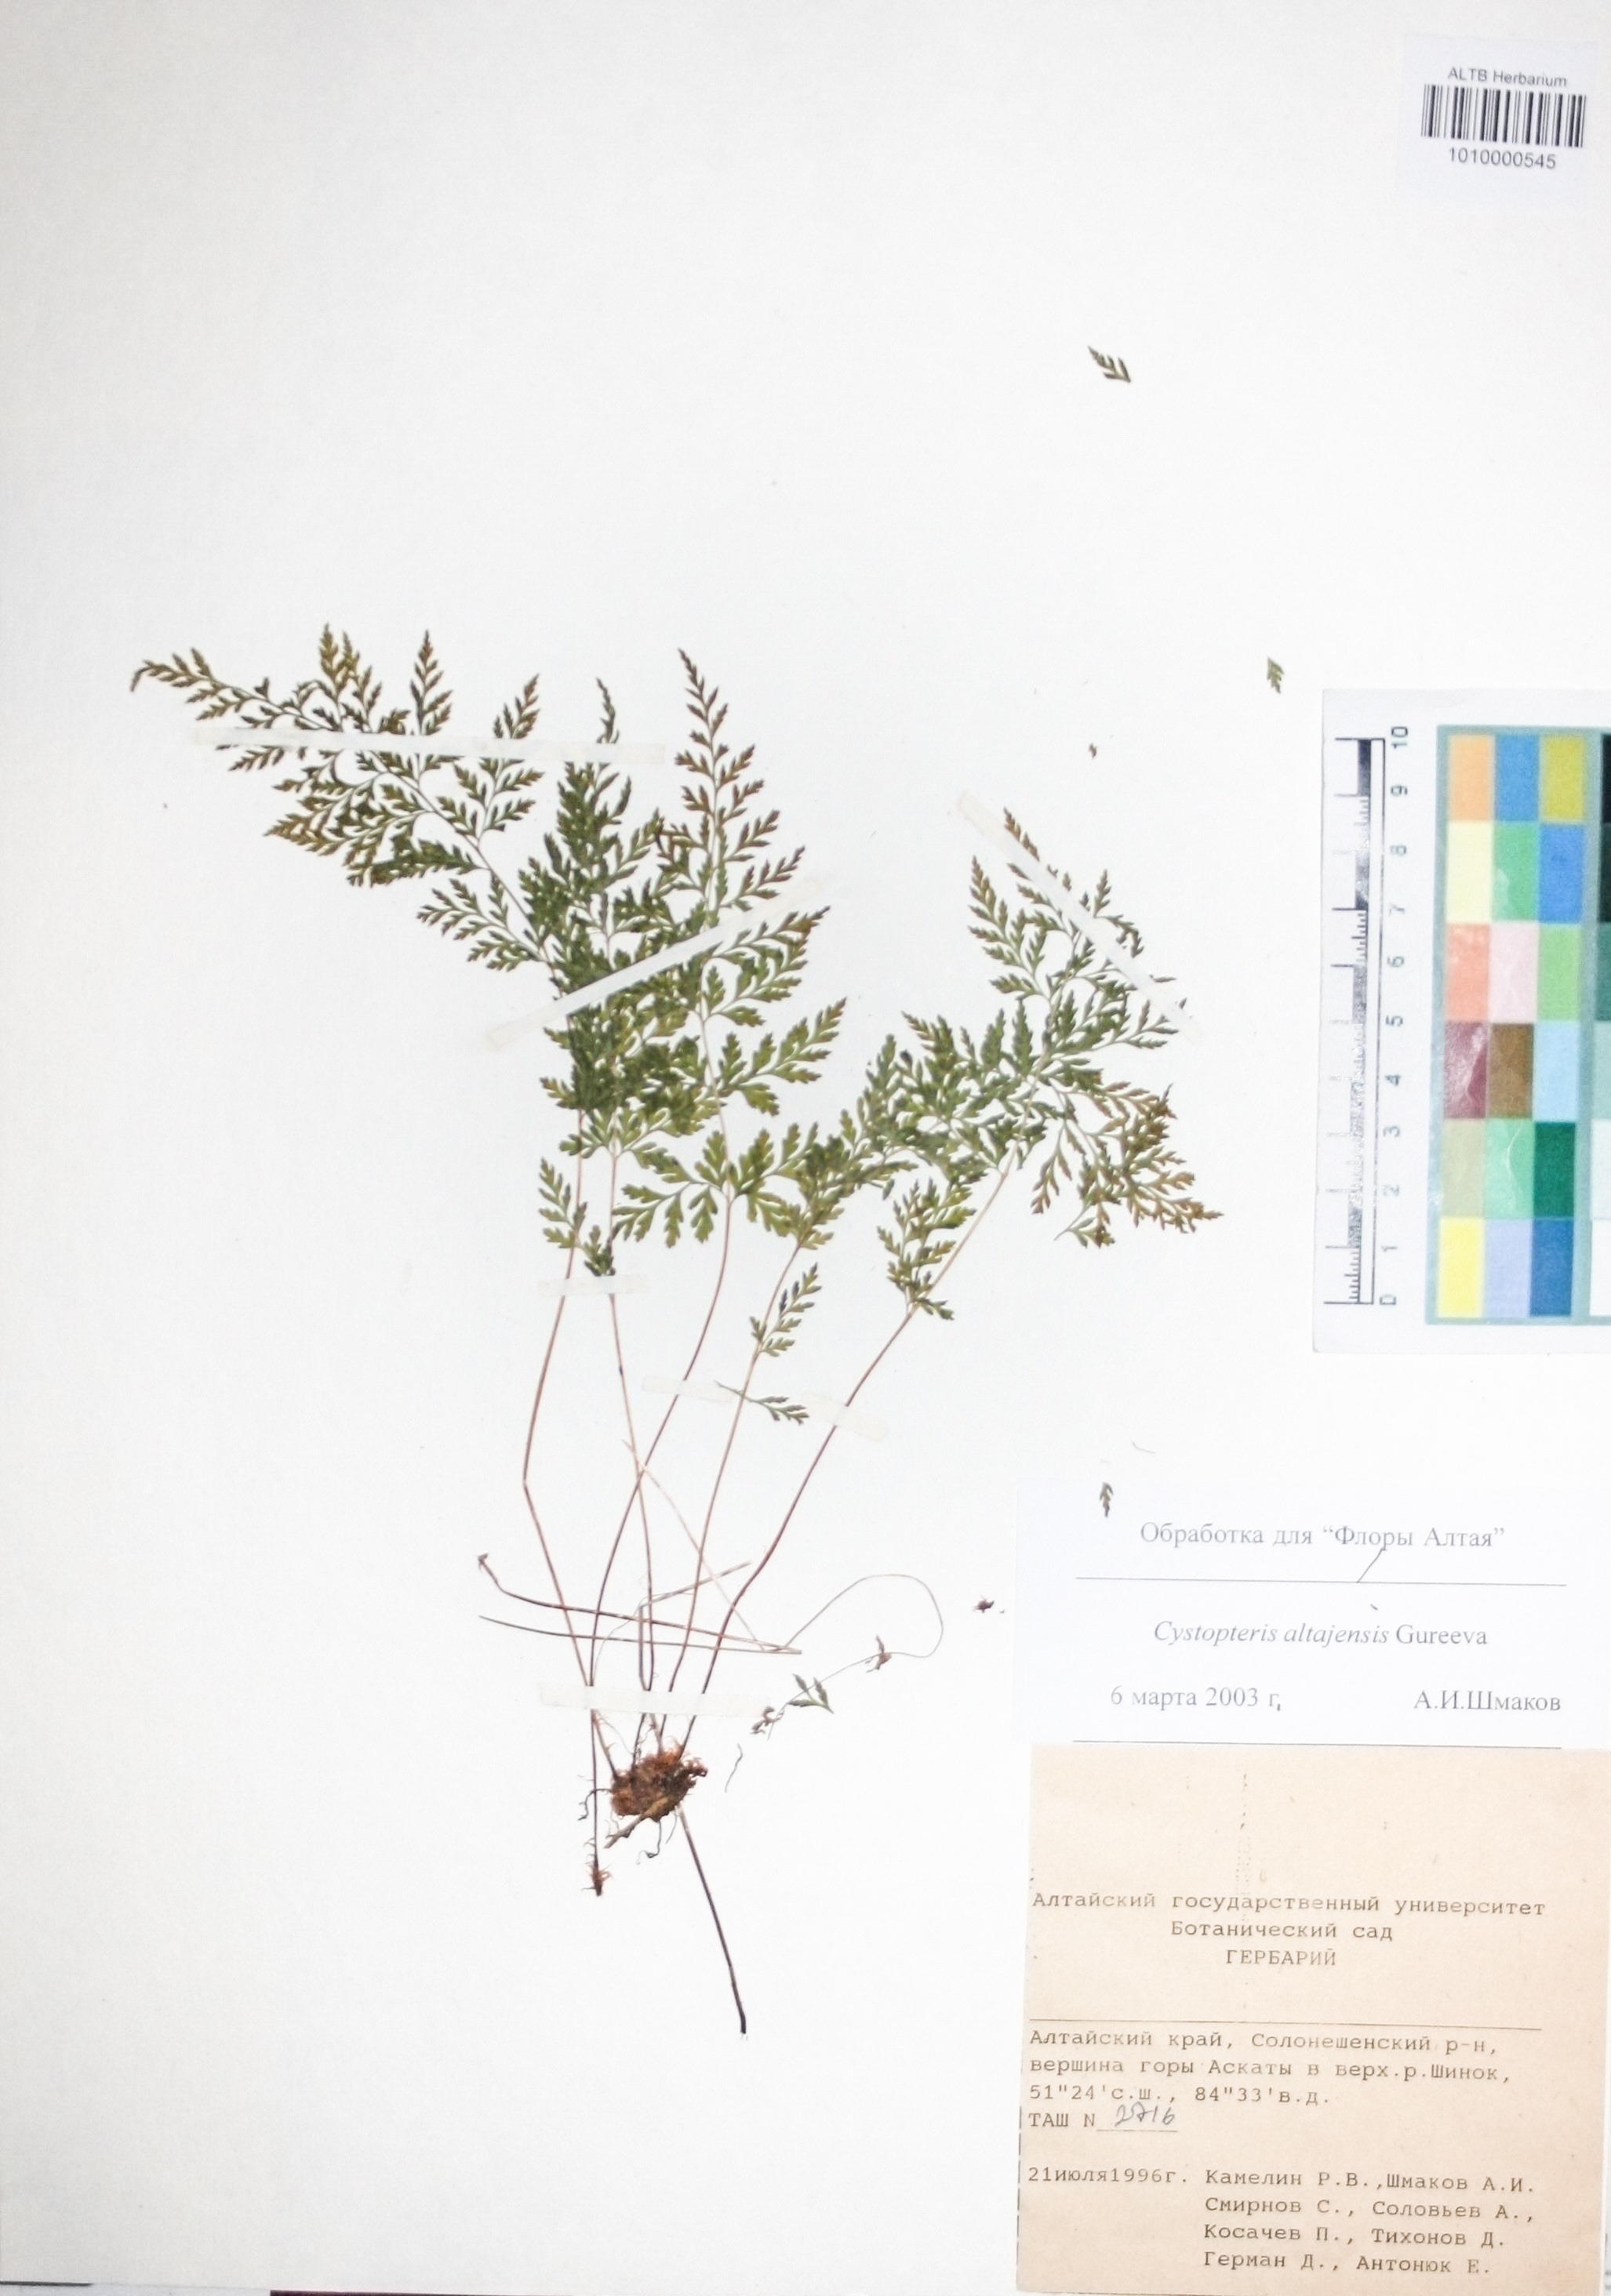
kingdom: Plantae
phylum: Tracheophyta
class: Polypodiopsida
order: Polypodiales
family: Cystopteridaceae
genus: Cystopteris
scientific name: Cystopteris diaphana
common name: Greenish bladder-fern
